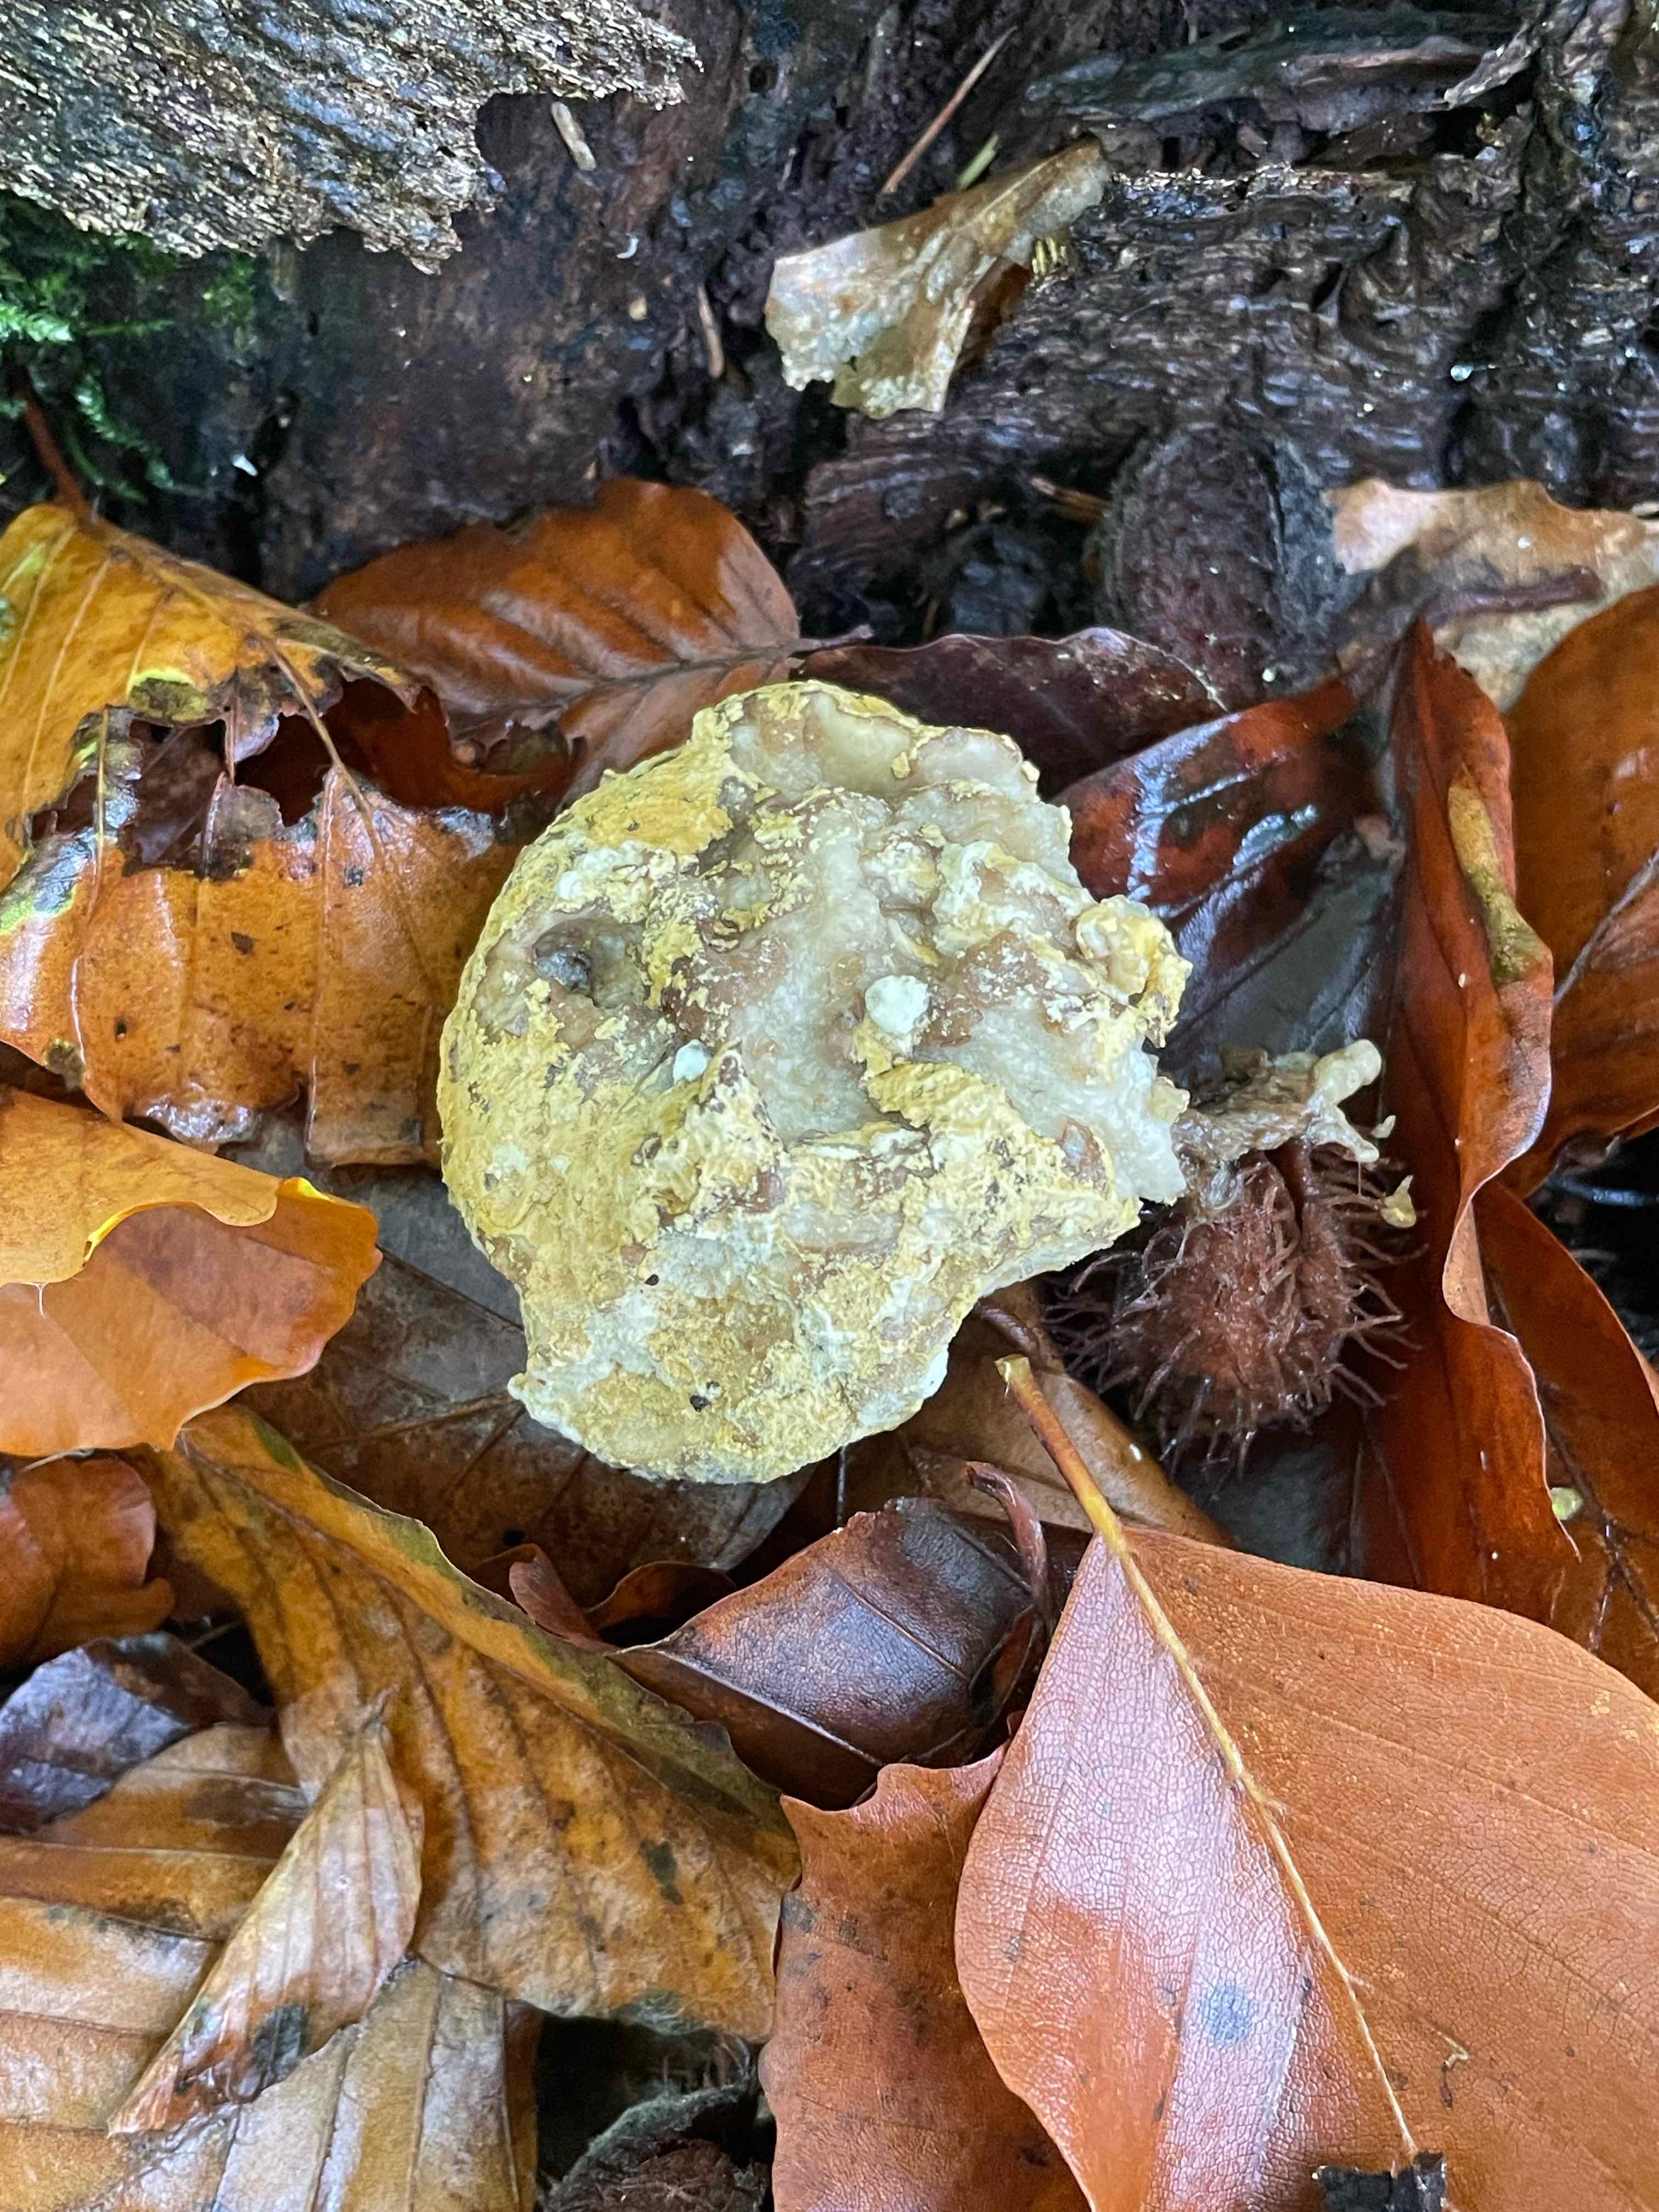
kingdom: Fungi
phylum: Ascomycota
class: Sordariomycetes
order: Hypocreales
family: Hypocreaceae
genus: Hypomyces
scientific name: Hypomyces
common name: snylteskorpe
